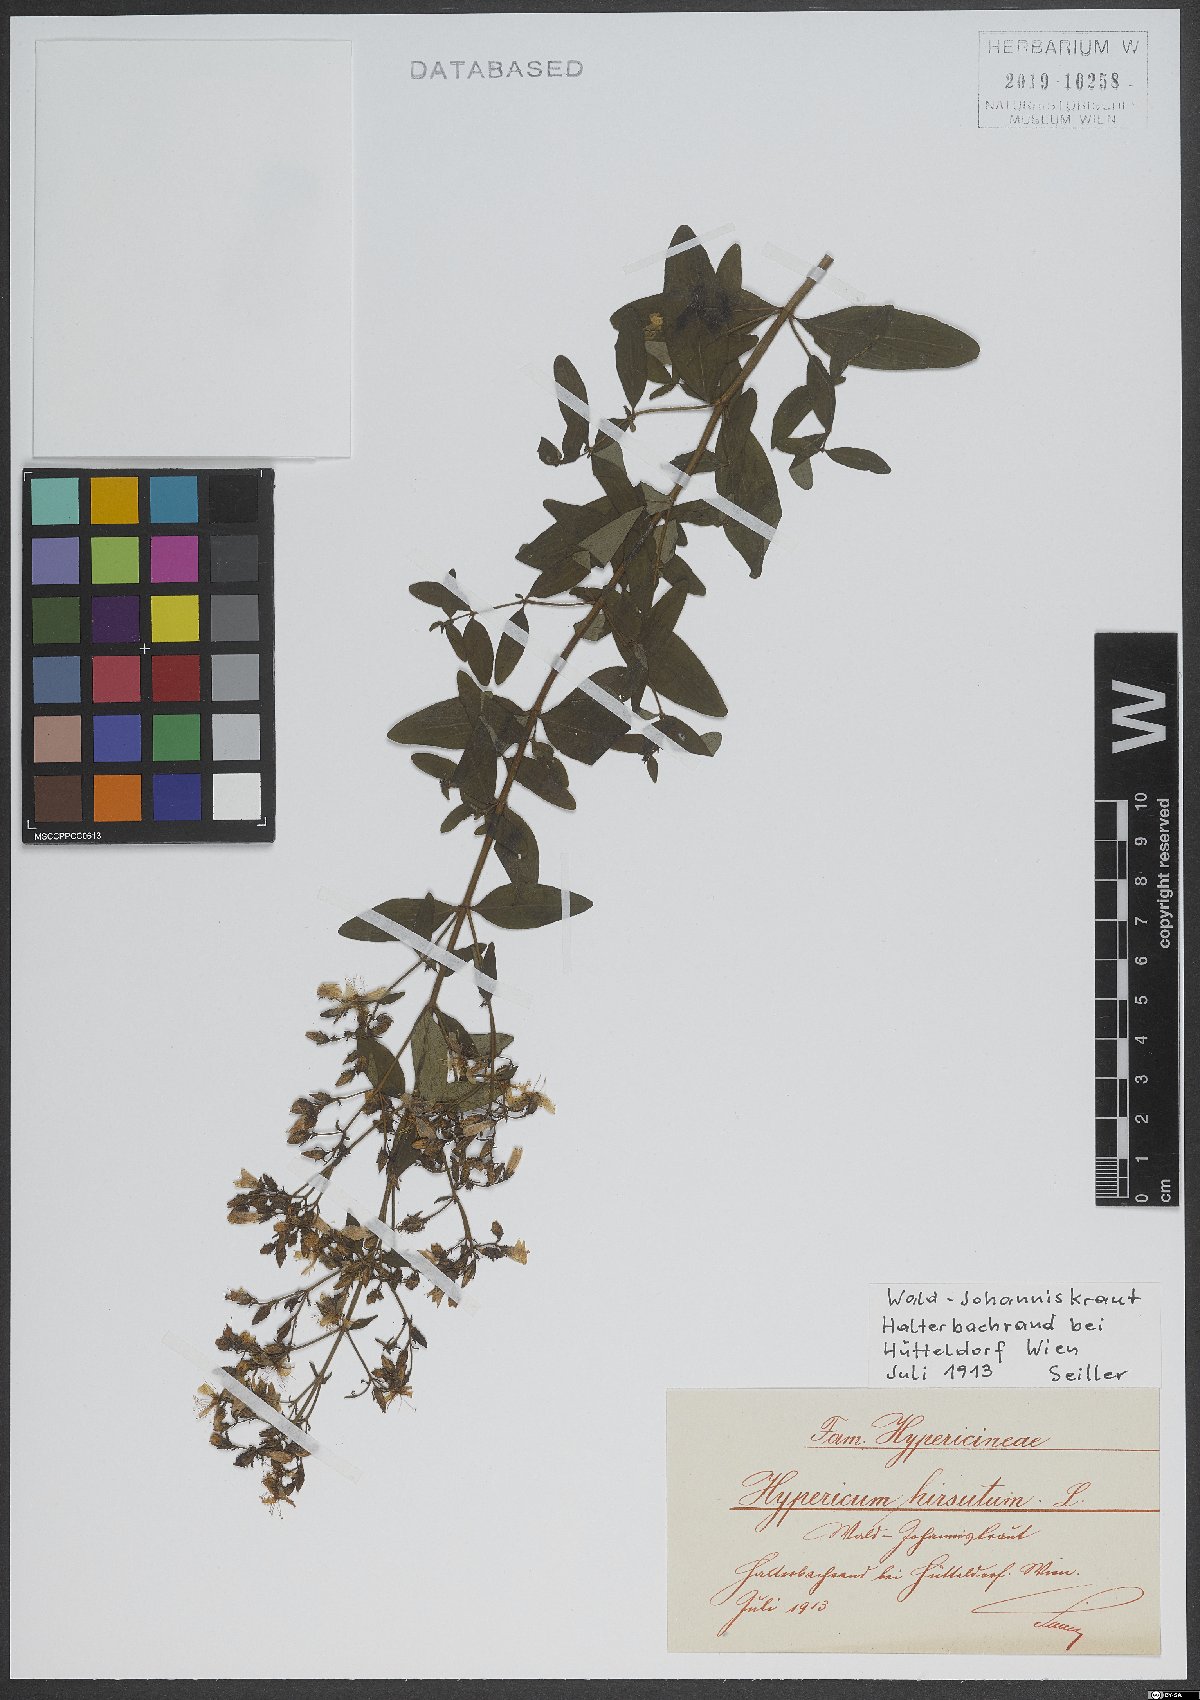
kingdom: Plantae
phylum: Tracheophyta
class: Magnoliopsida
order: Malpighiales
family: Hypericaceae
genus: Hypericum
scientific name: Hypericum hirsutum
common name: Hairy st. john's-wort
